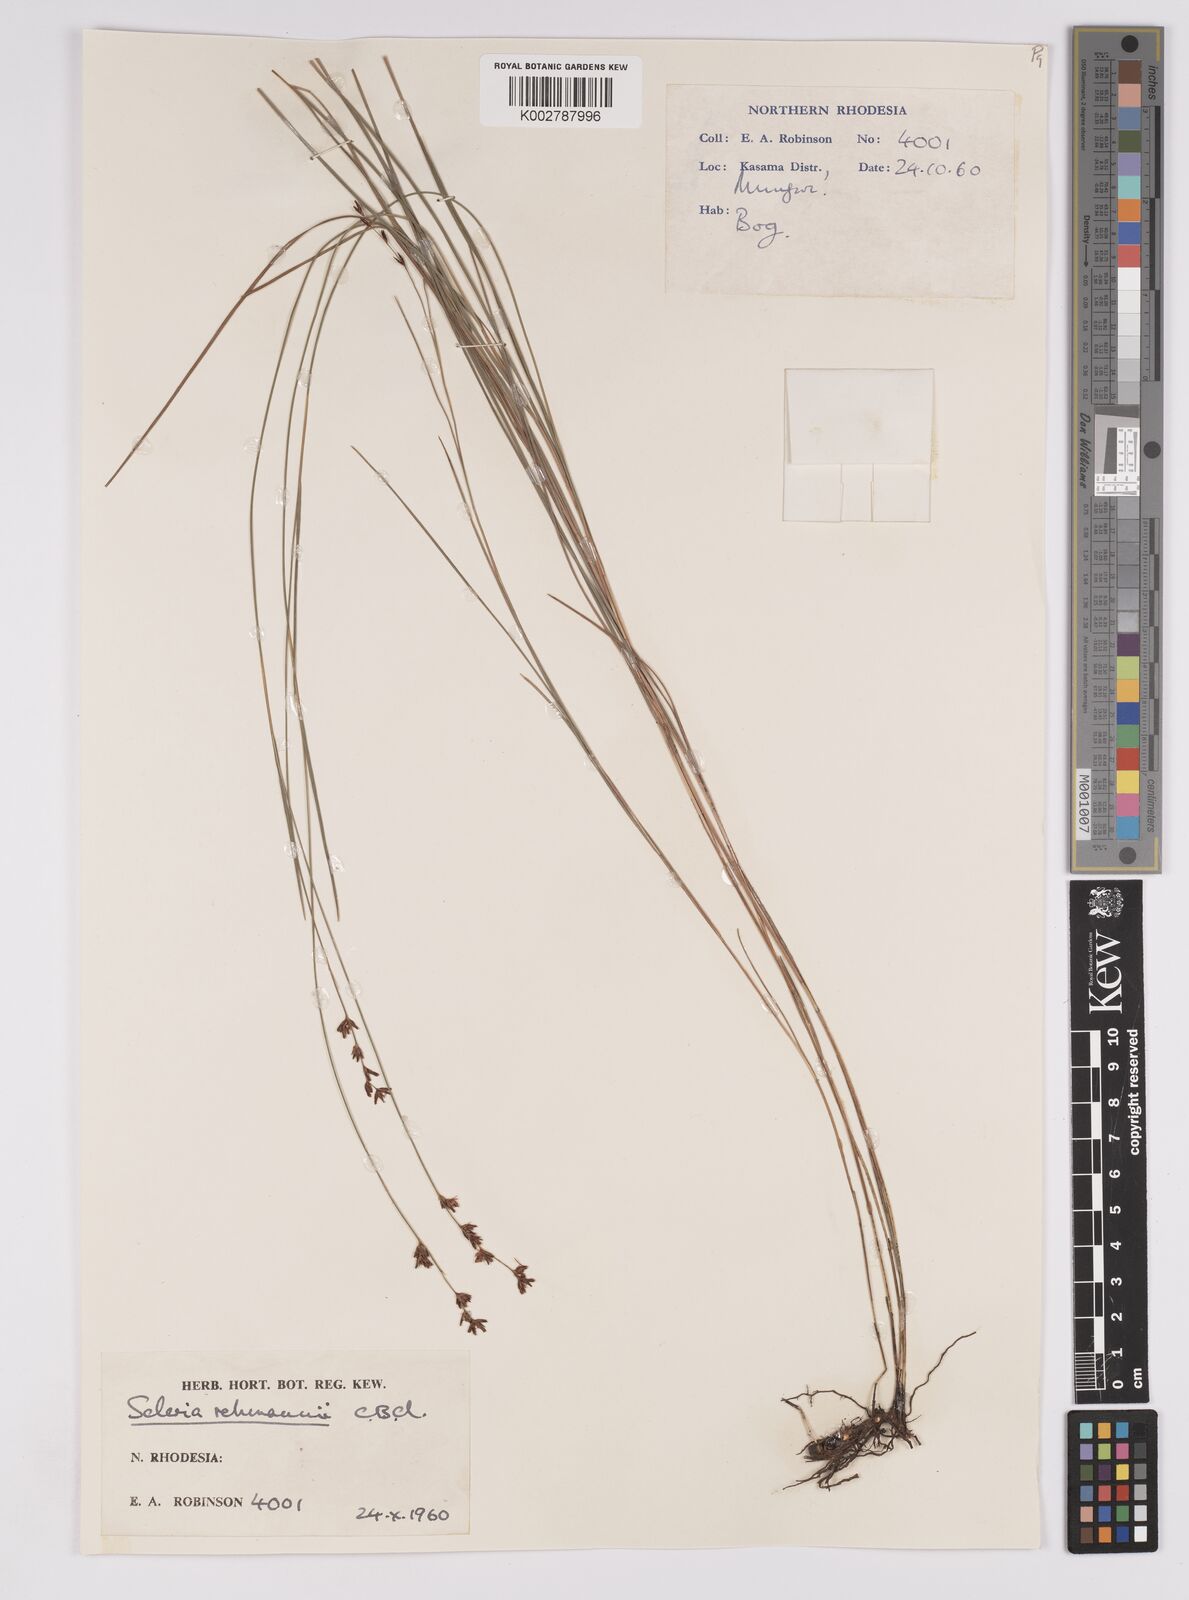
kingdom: Plantae
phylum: Tracheophyta
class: Liliopsida
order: Poales
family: Cyperaceae
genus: Scleria
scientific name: Scleria rehmannii
